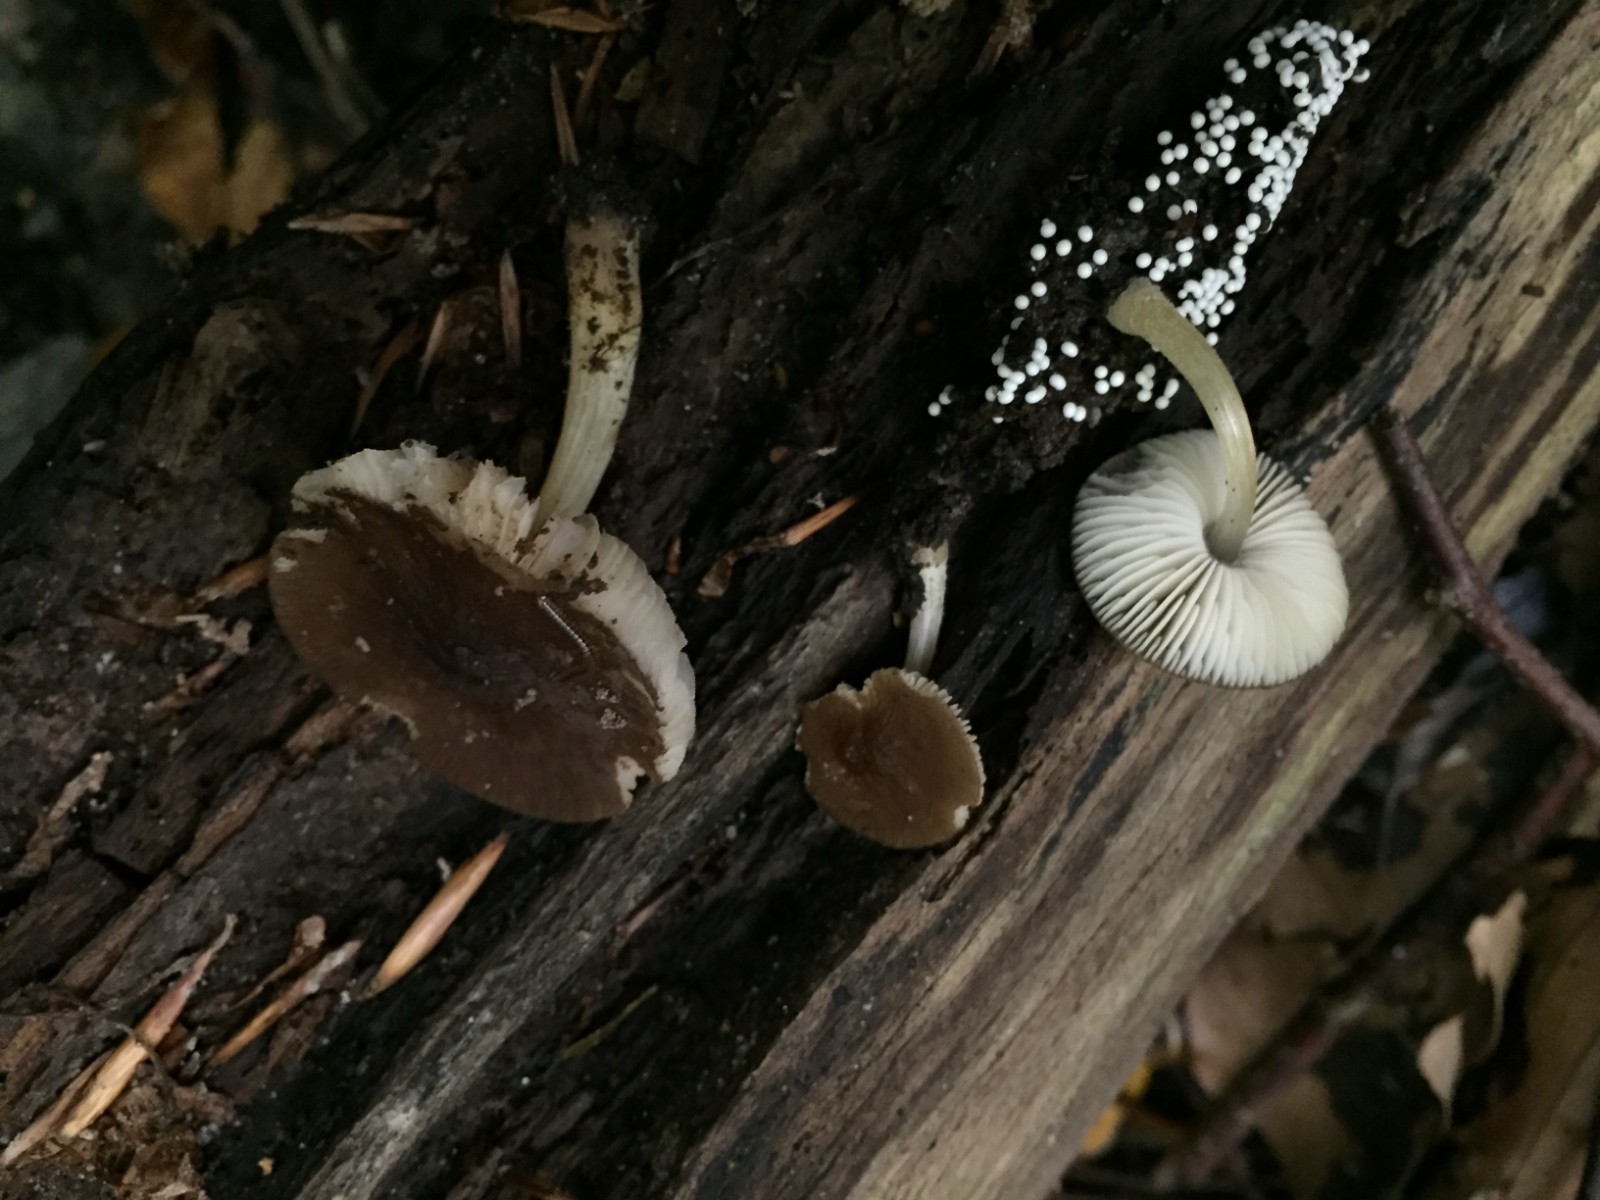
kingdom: Fungi
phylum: Basidiomycota
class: Agaricomycetes
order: Agaricales
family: Pluteaceae
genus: Pluteus
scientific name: Pluteus romellii
